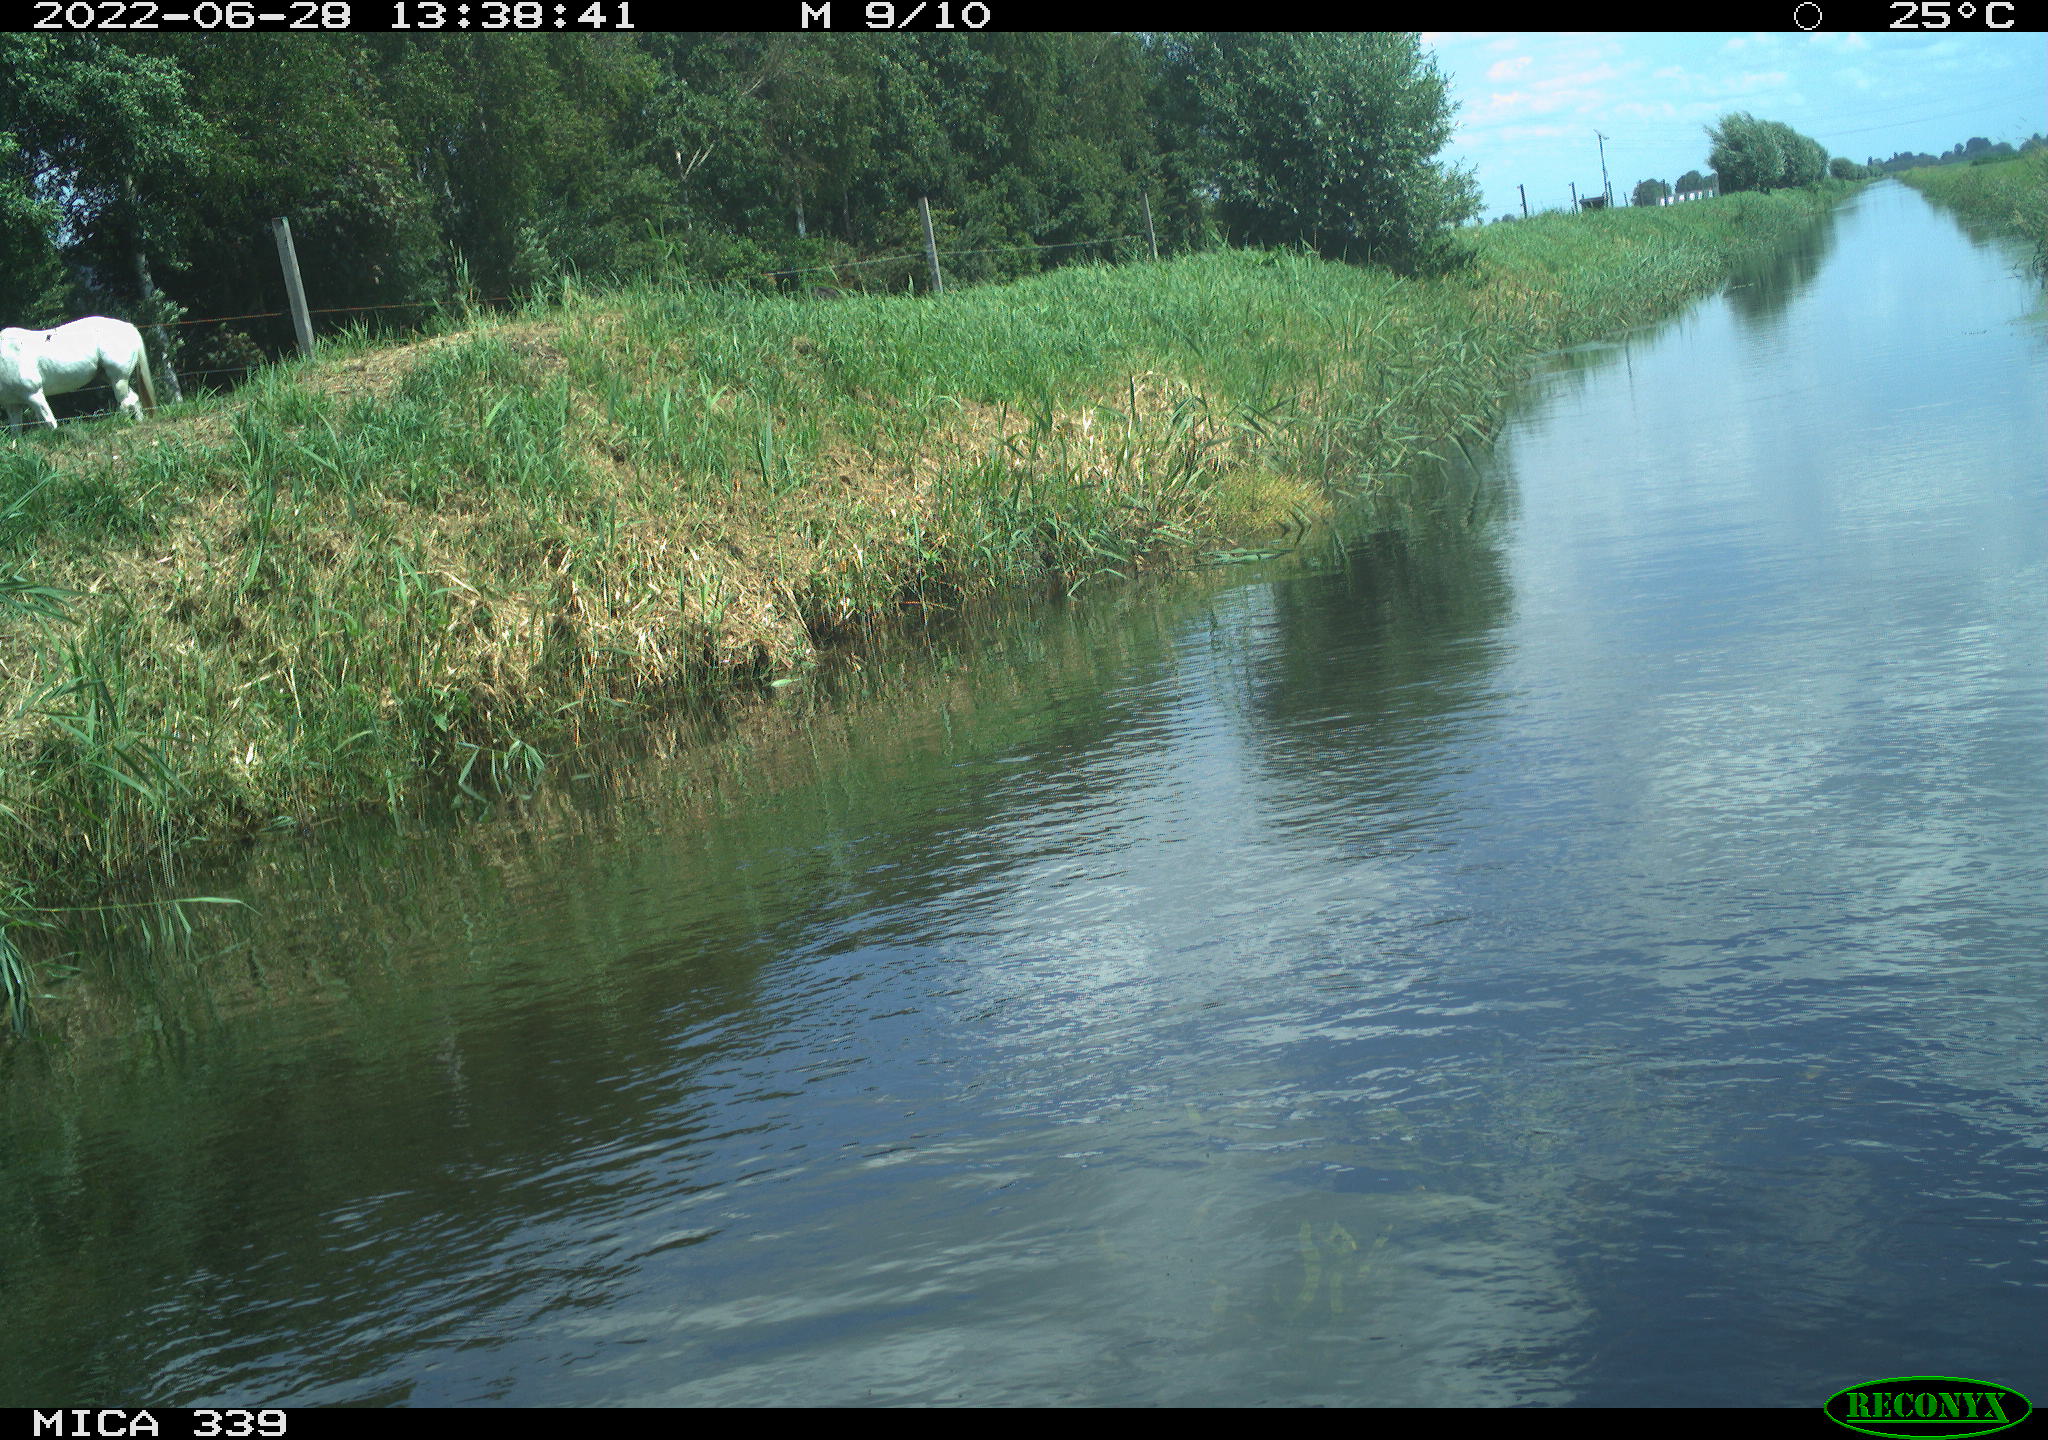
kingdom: Animalia
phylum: Chordata
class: Mammalia
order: Perissodactyla
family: Equidae
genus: Equus
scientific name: Equus caballus
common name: Horse
